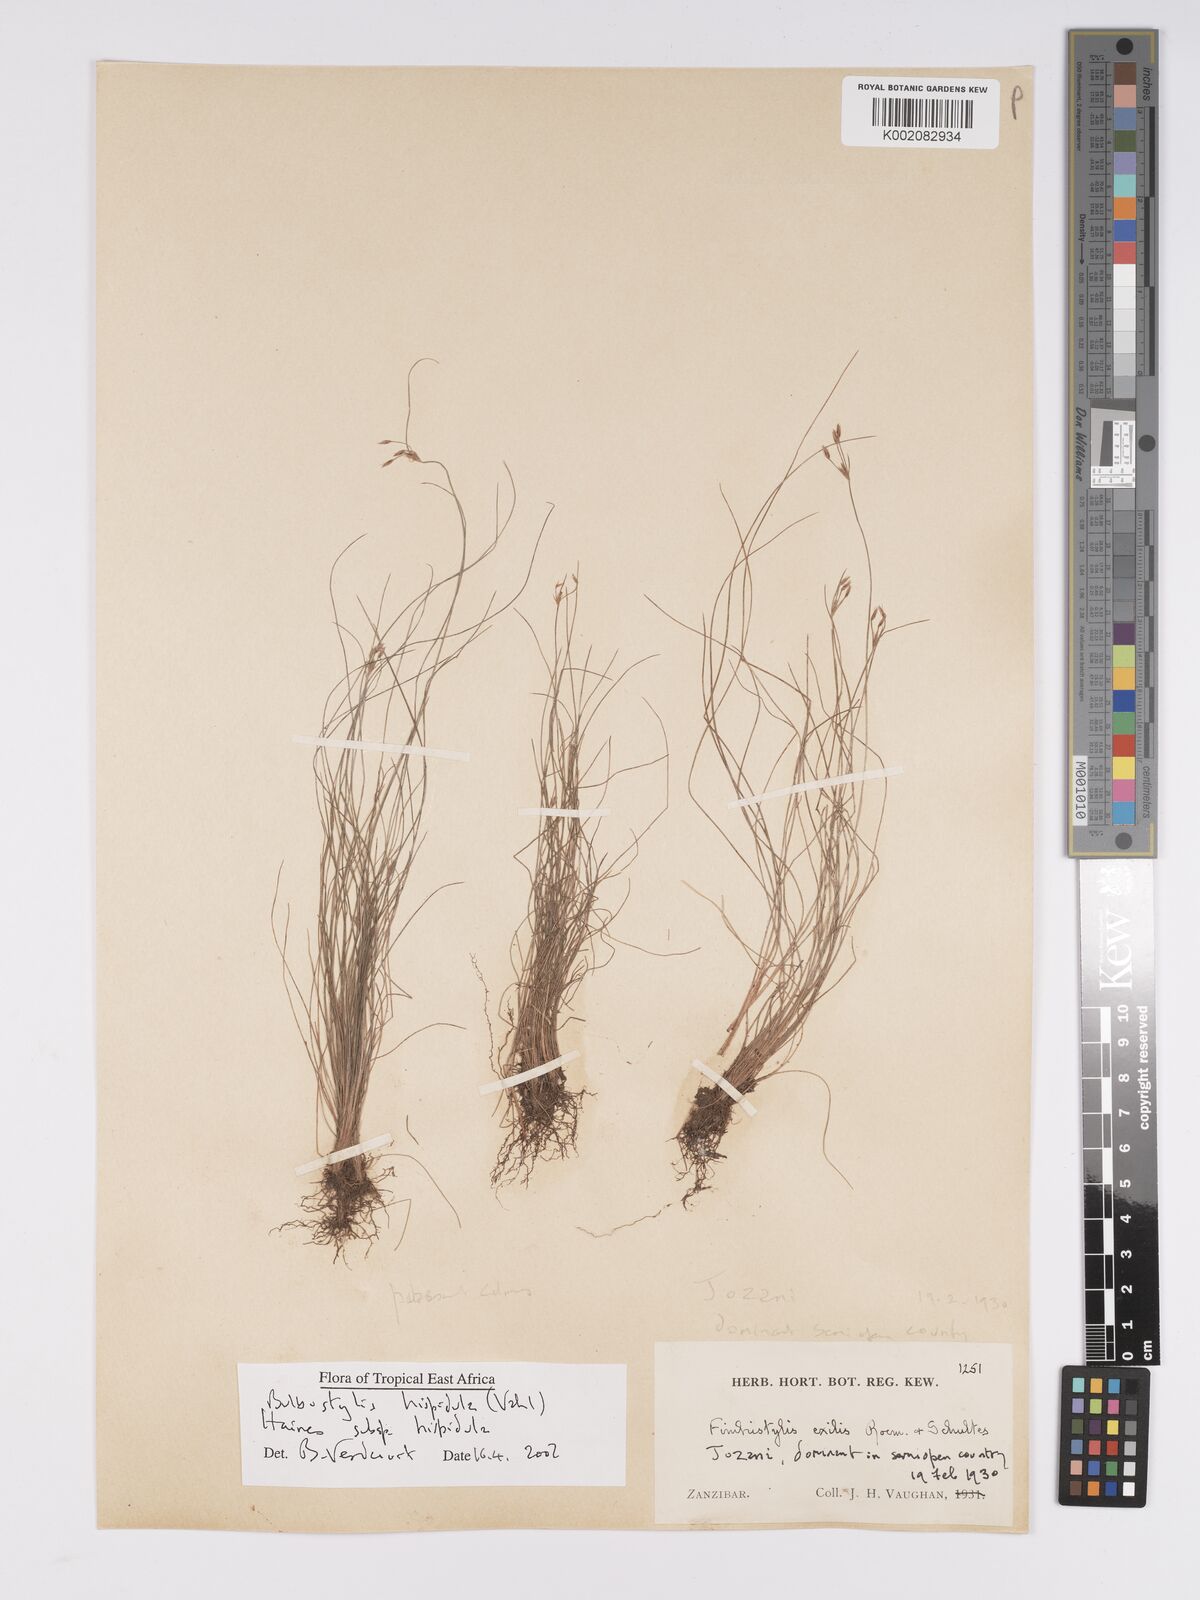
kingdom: Plantae
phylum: Tracheophyta
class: Liliopsida
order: Poales
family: Cyperaceae
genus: Bulbostylis
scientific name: Bulbostylis hispidula
